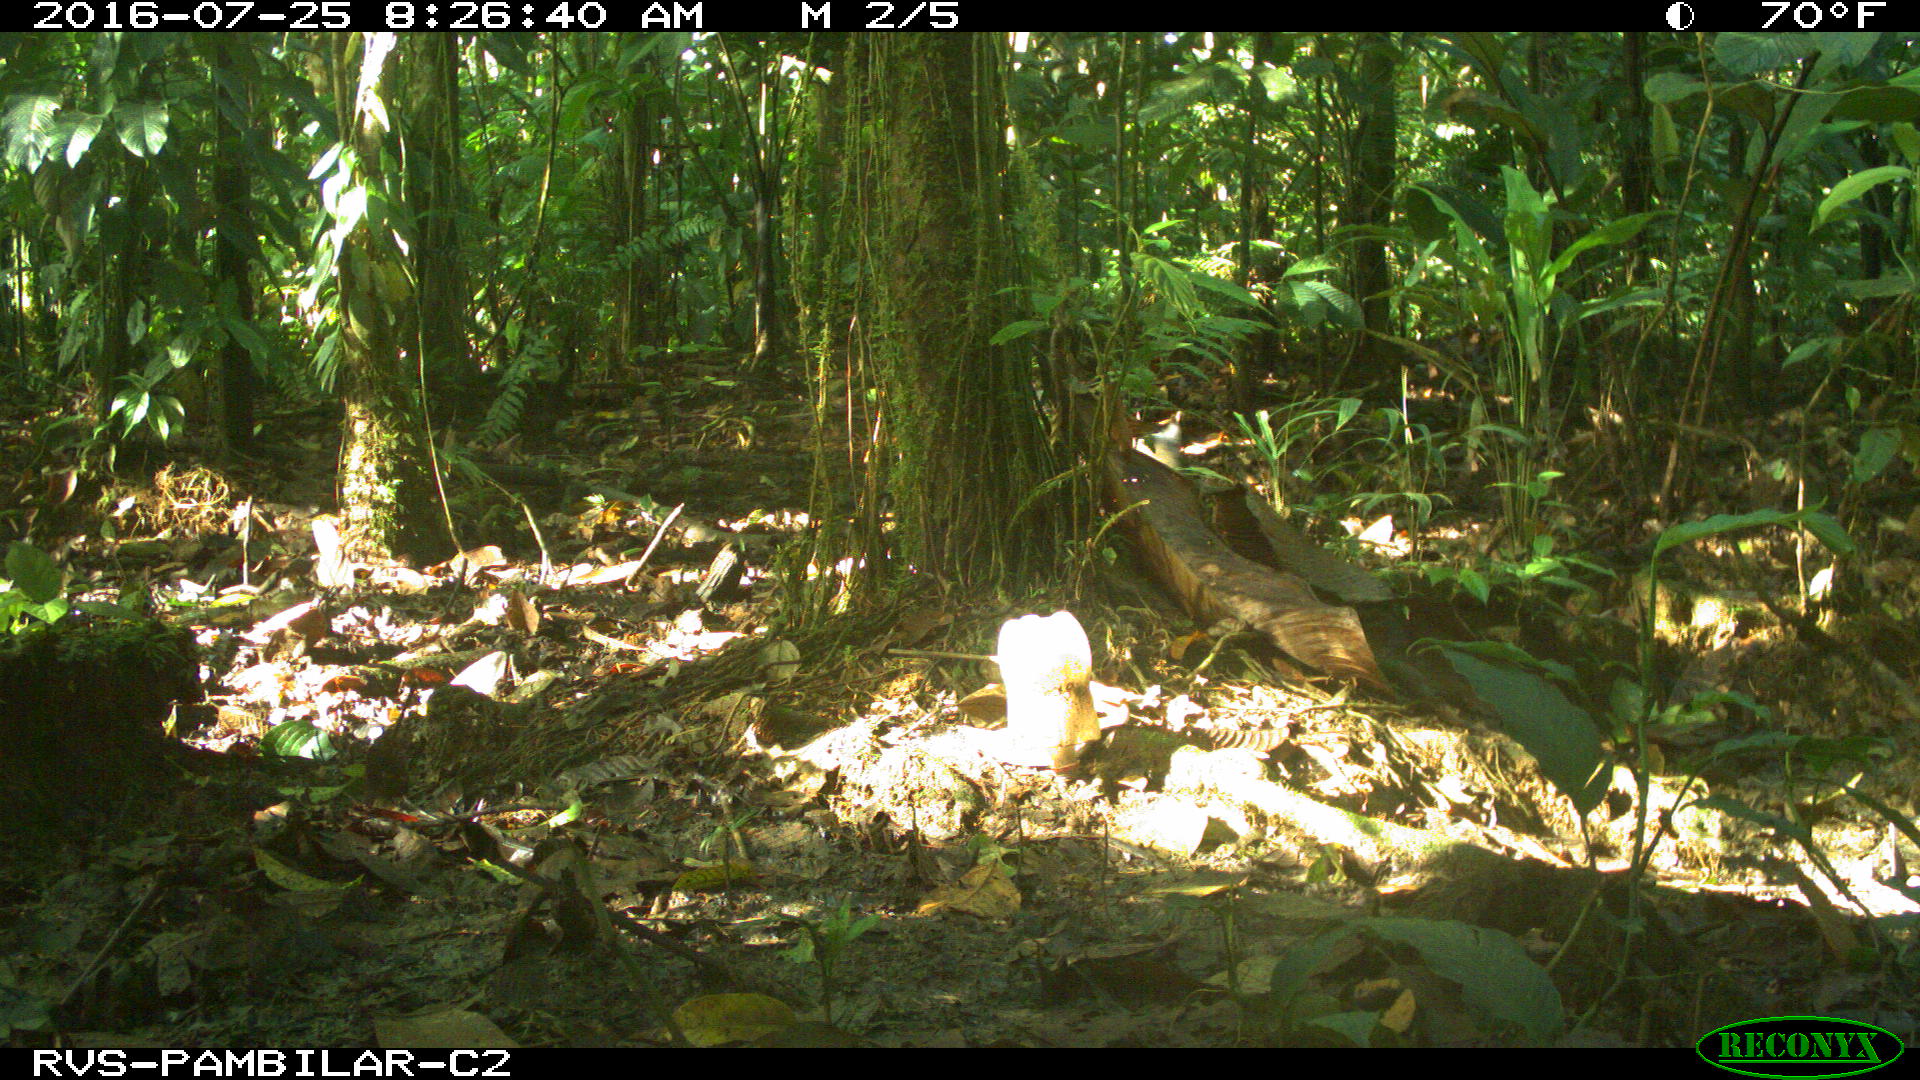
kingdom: Animalia
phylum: Chordata
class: Mammalia
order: Artiodactyla
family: Tayassuidae
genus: Pecari
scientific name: Pecari tajacu
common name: Collared peccary
